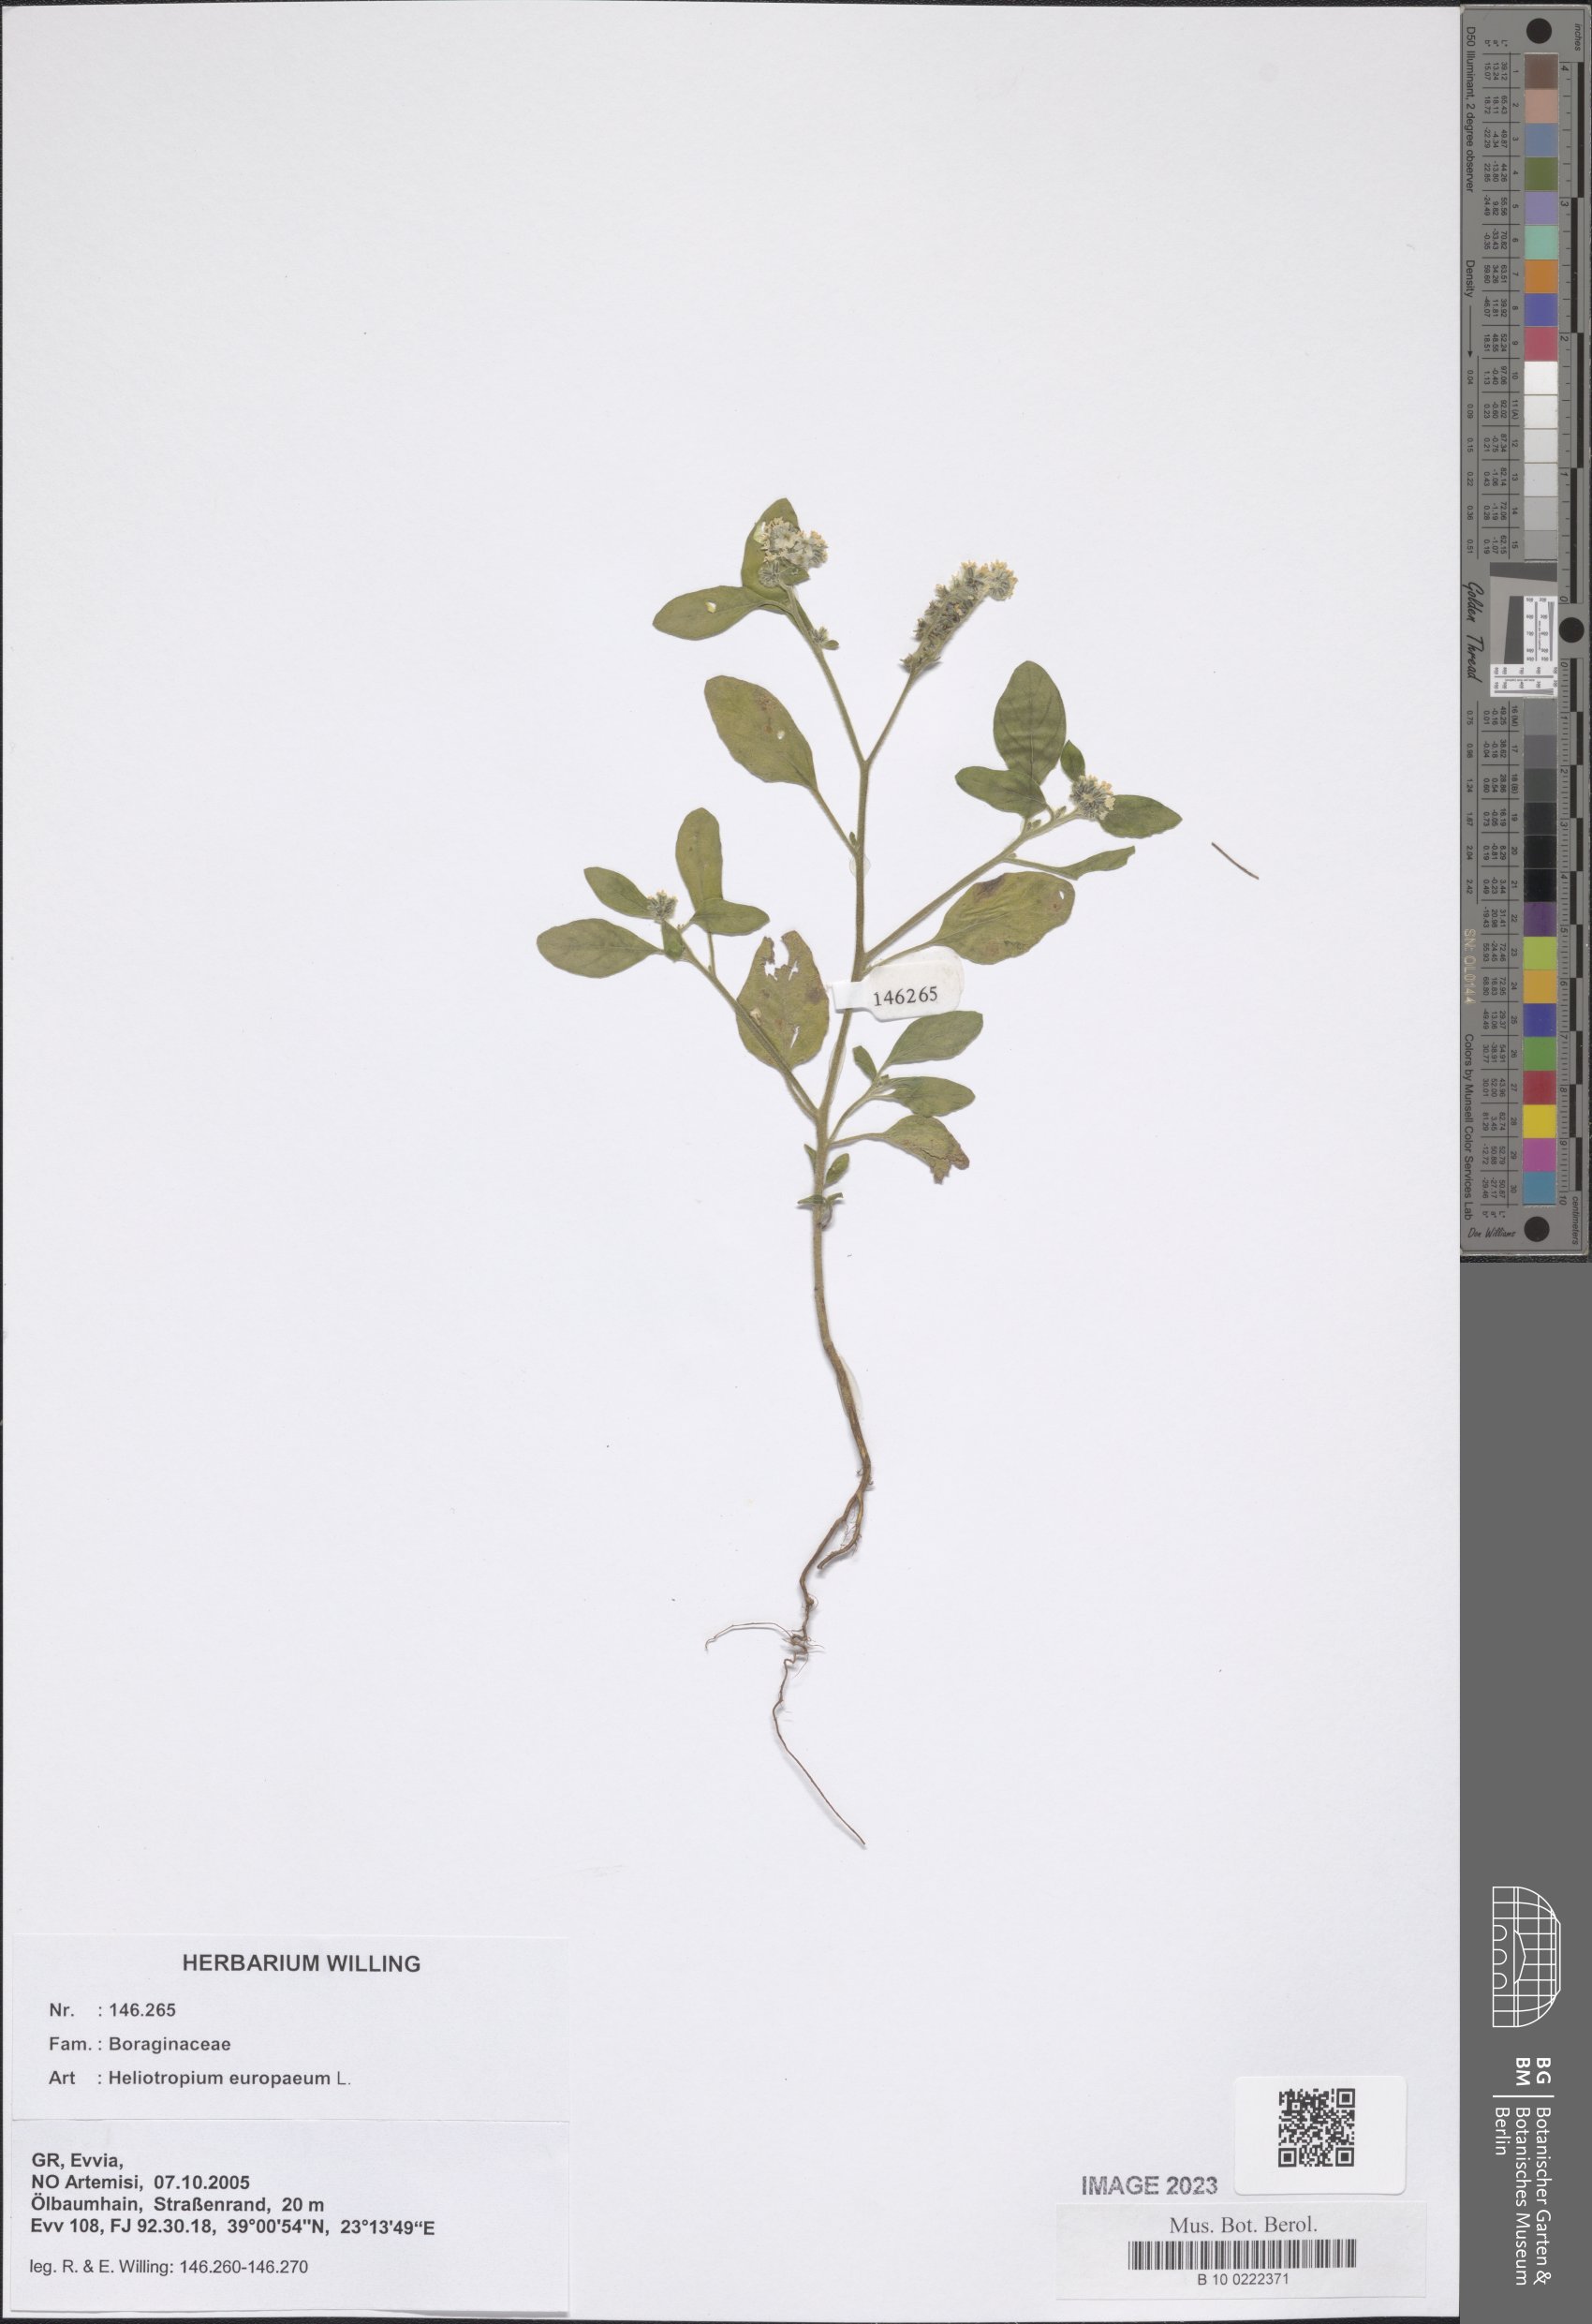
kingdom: Plantae
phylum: Tracheophyta
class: Magnoliopsida
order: Boraginales
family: Heliotropiaceae
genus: Heliotropium
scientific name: Heliotropium europaeum
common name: European heliotrope
